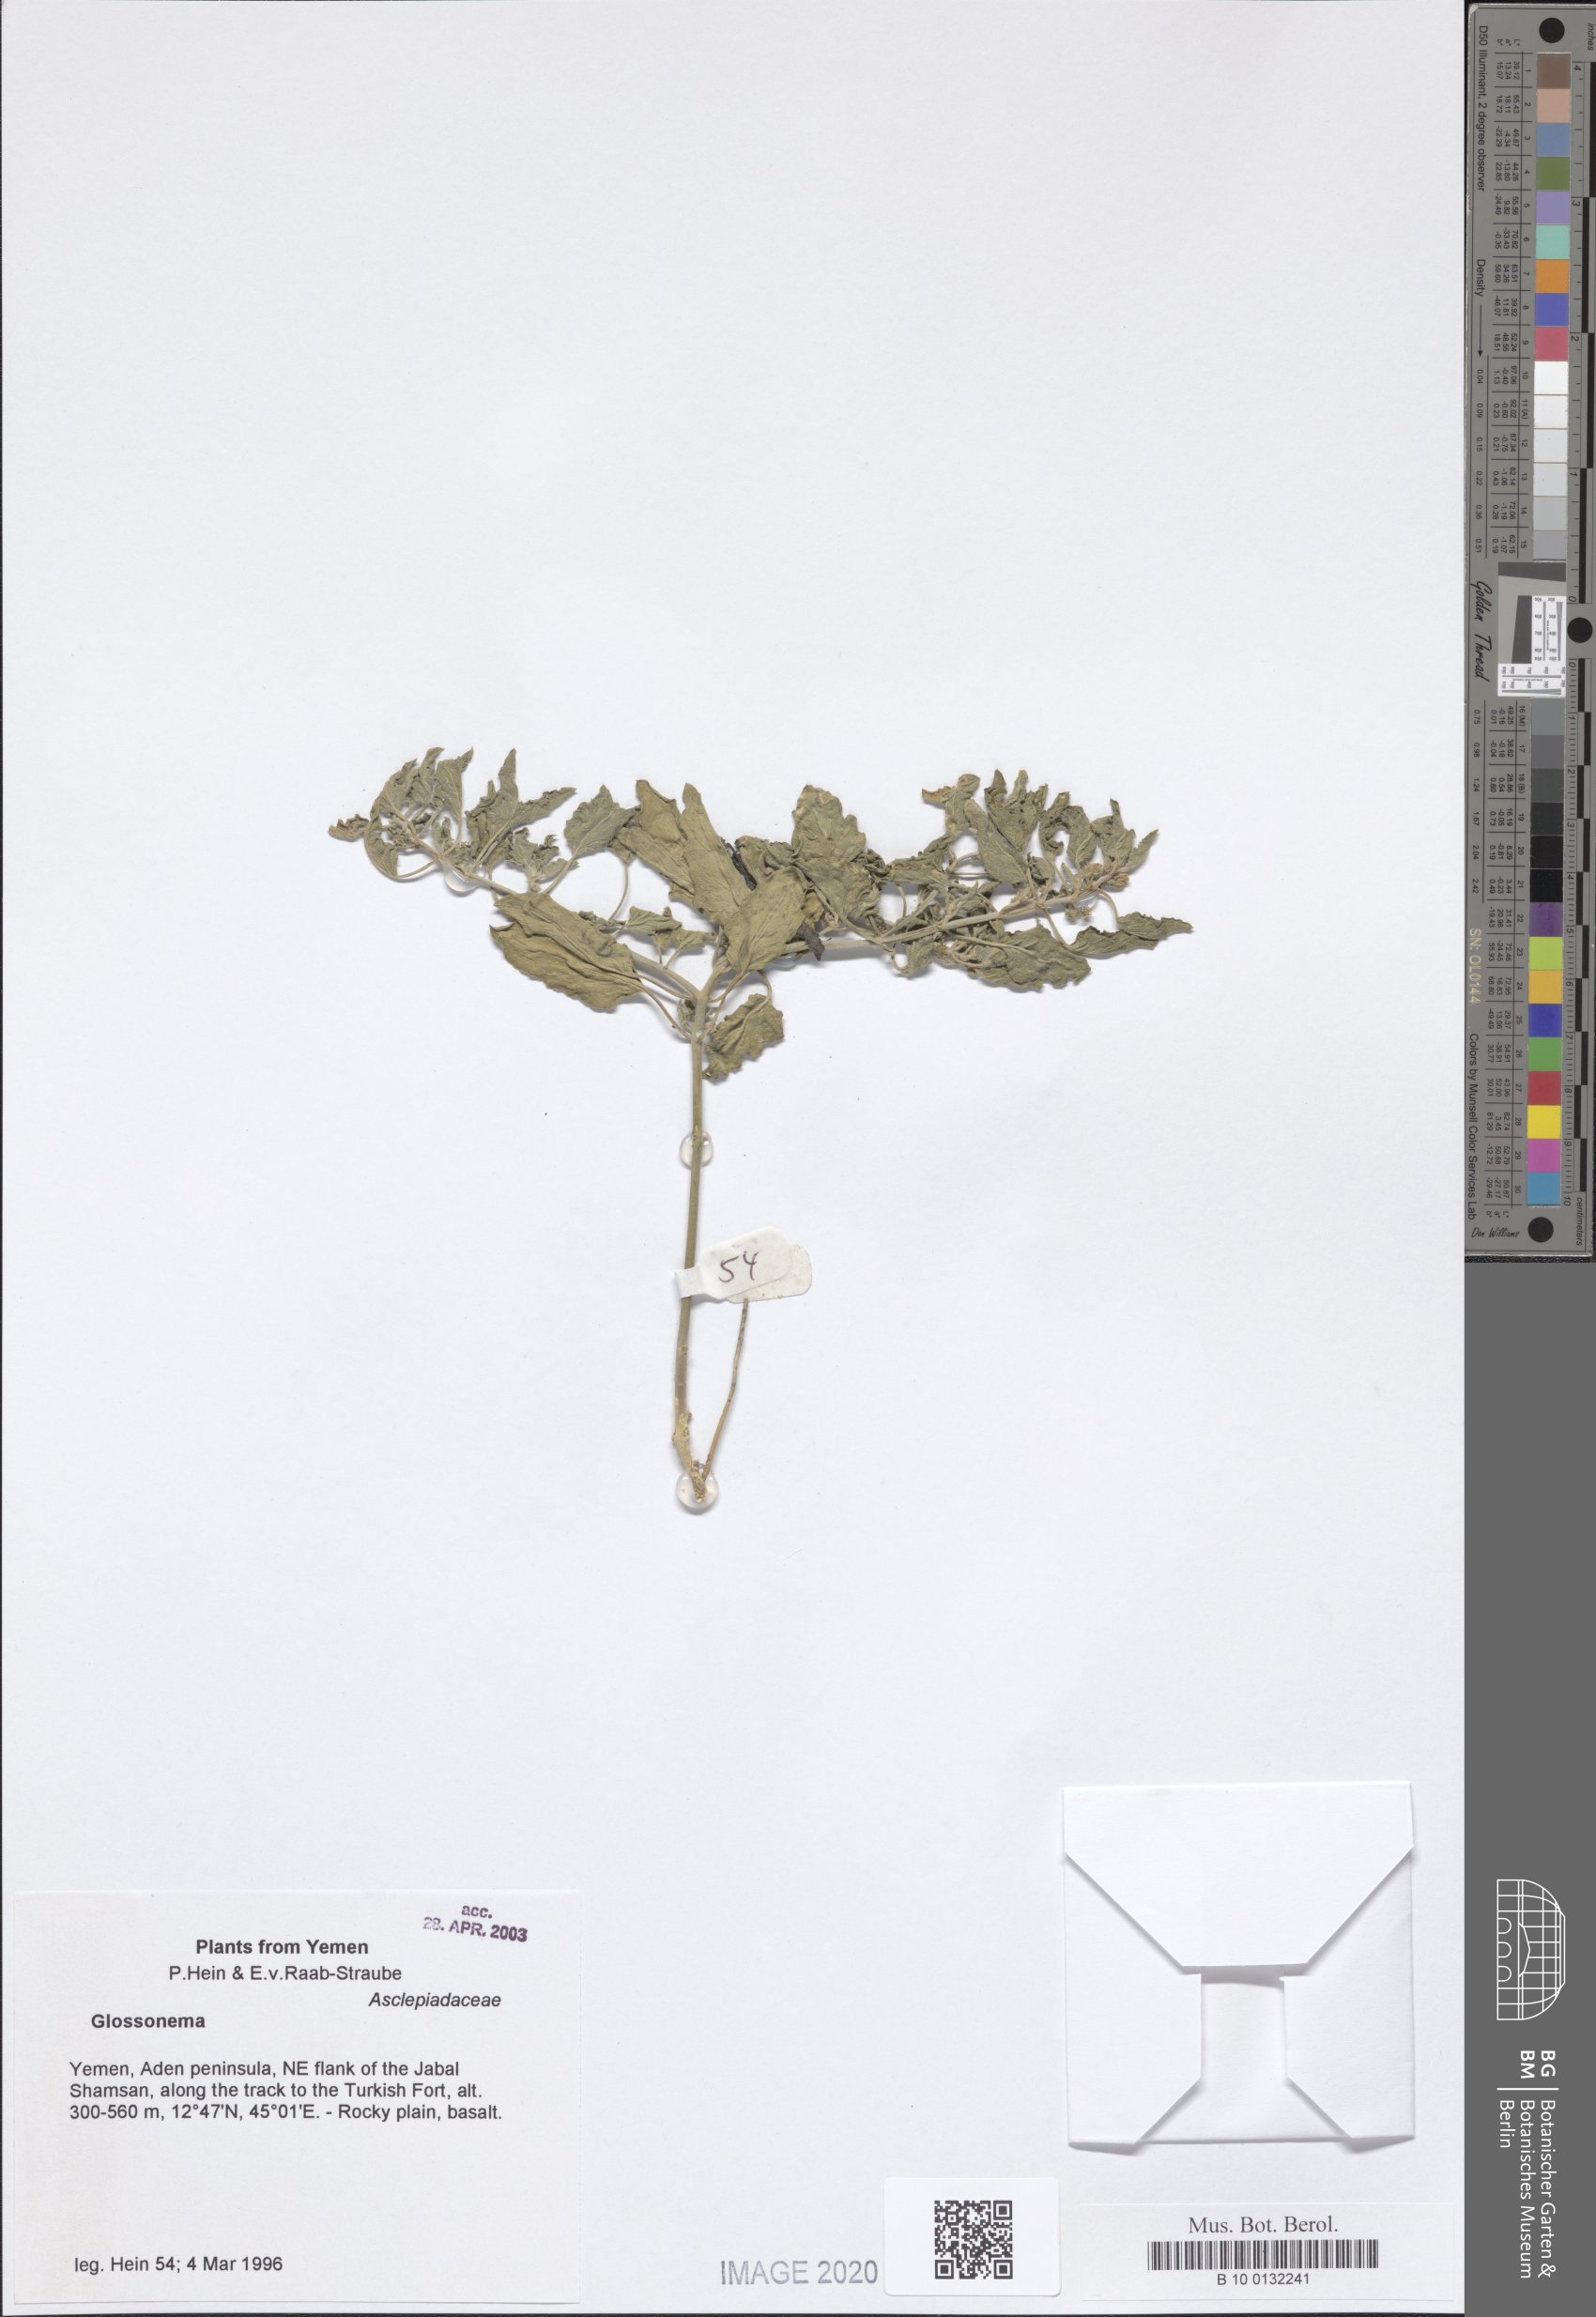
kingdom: Plantae
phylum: Tracheophyta
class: Magnoliopsida
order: Gentianales
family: Apocynaceae
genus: Cynanchum
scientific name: Cynanchum boveanum
